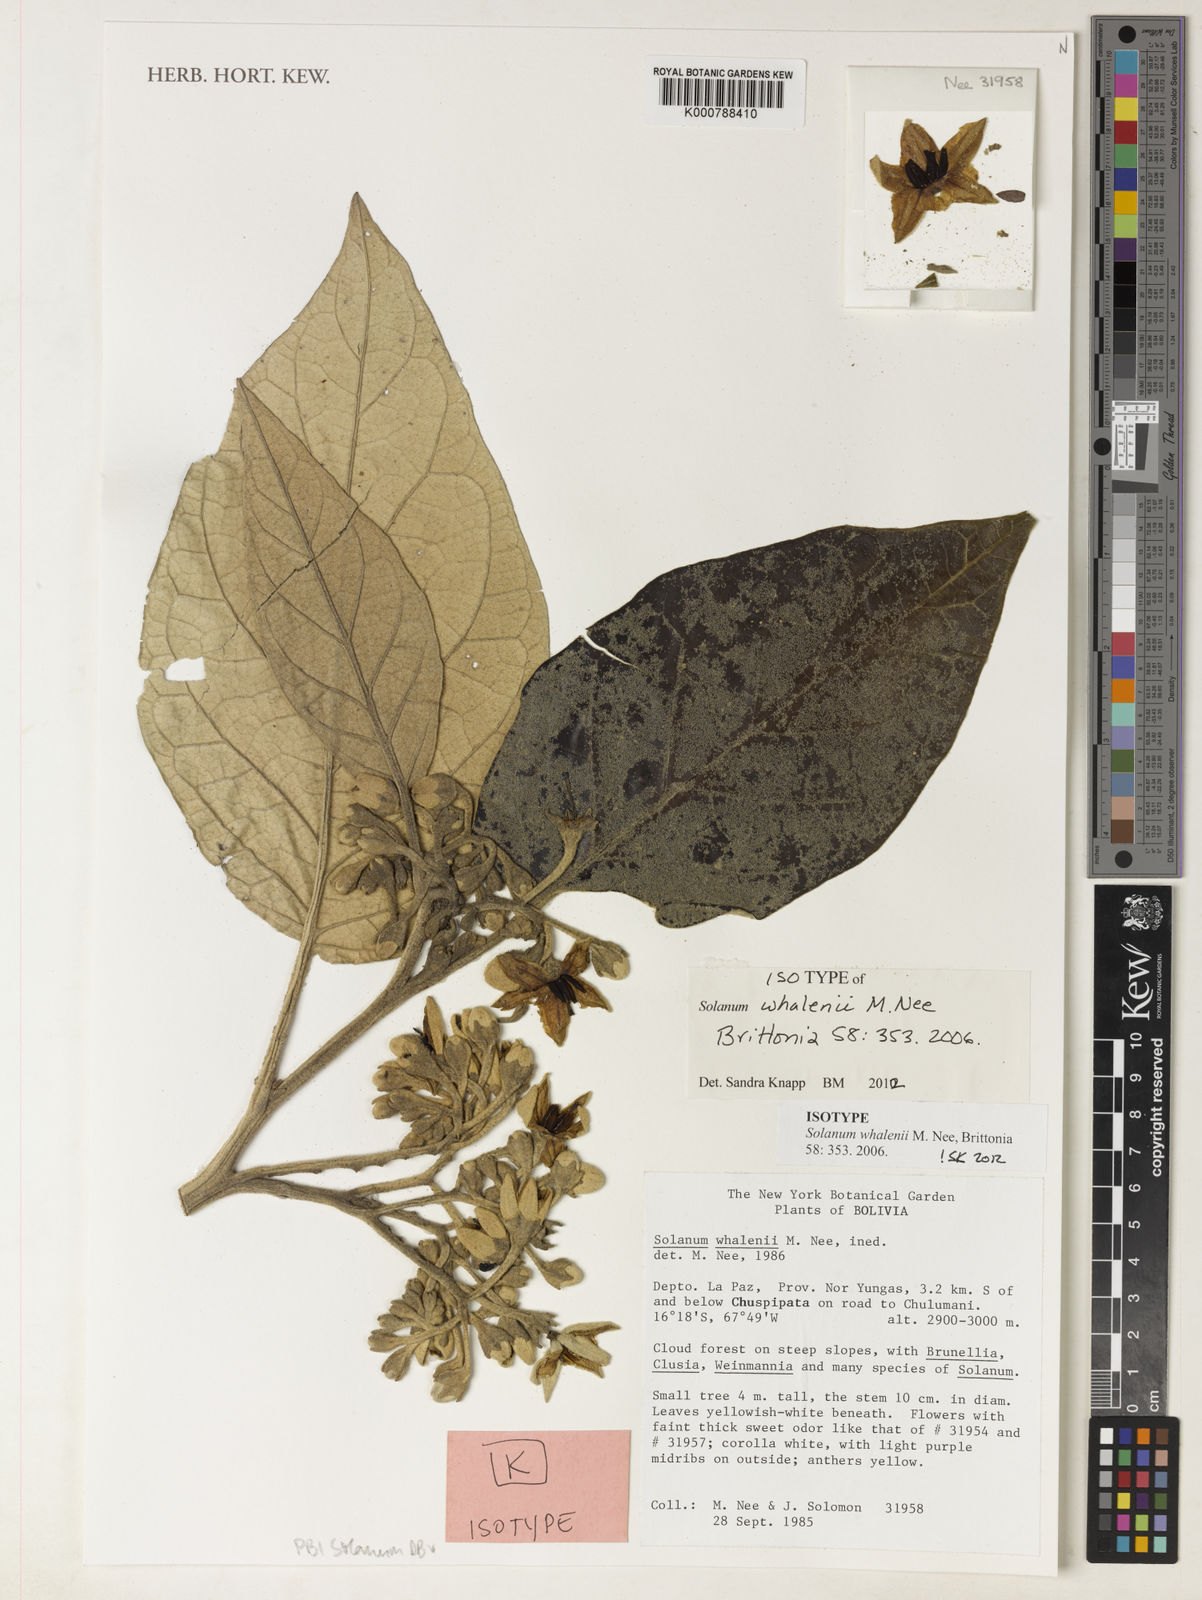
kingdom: Plantae
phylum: Tracheophyta
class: Magnoliopsida
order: Solanales
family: Solanaceae
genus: Solanum
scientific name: Solanum whalenii
